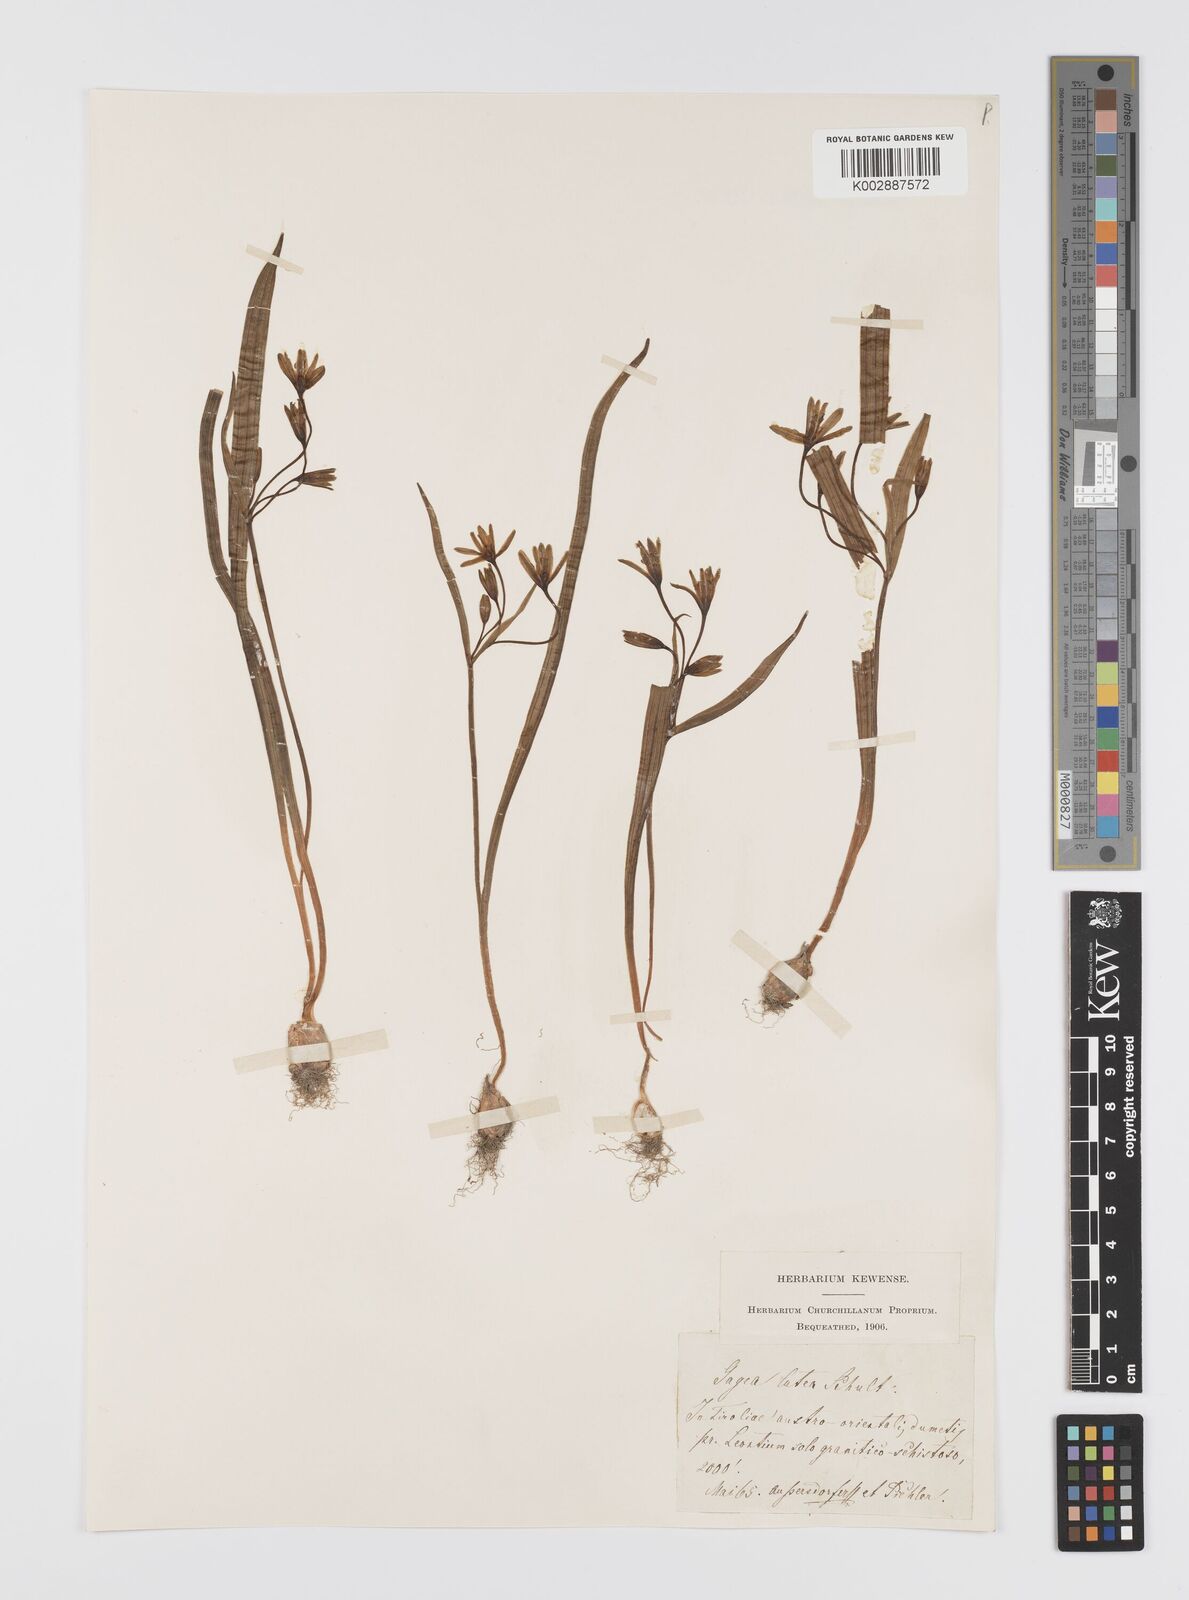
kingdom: Plantae
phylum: Tracheophyta
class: Liliopsida
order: Liliales
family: Liliaceae
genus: Gagea
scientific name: Gagea lutea
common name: Yellow star-of-bethlehem
